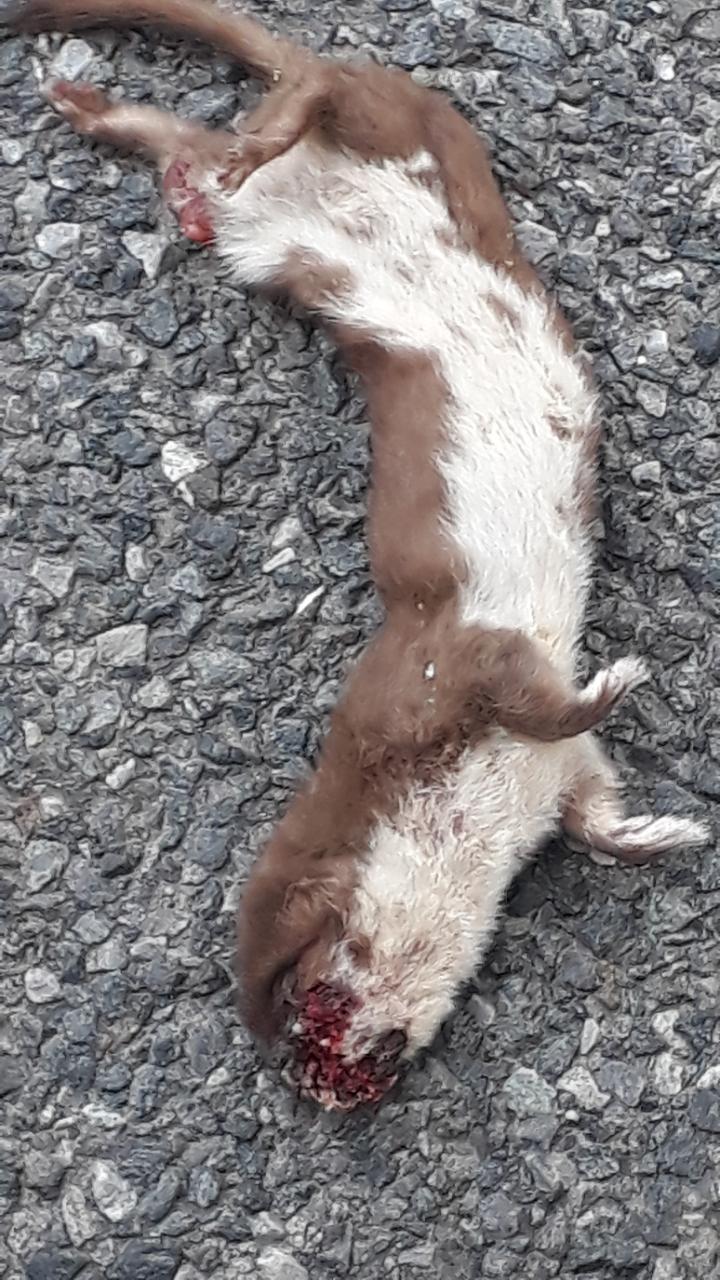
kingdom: Animalia
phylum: Chordata
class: Mammalia
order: Carnivora
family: Mustelidae
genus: Mustela
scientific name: Mustela nivalis
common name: Least weasel
